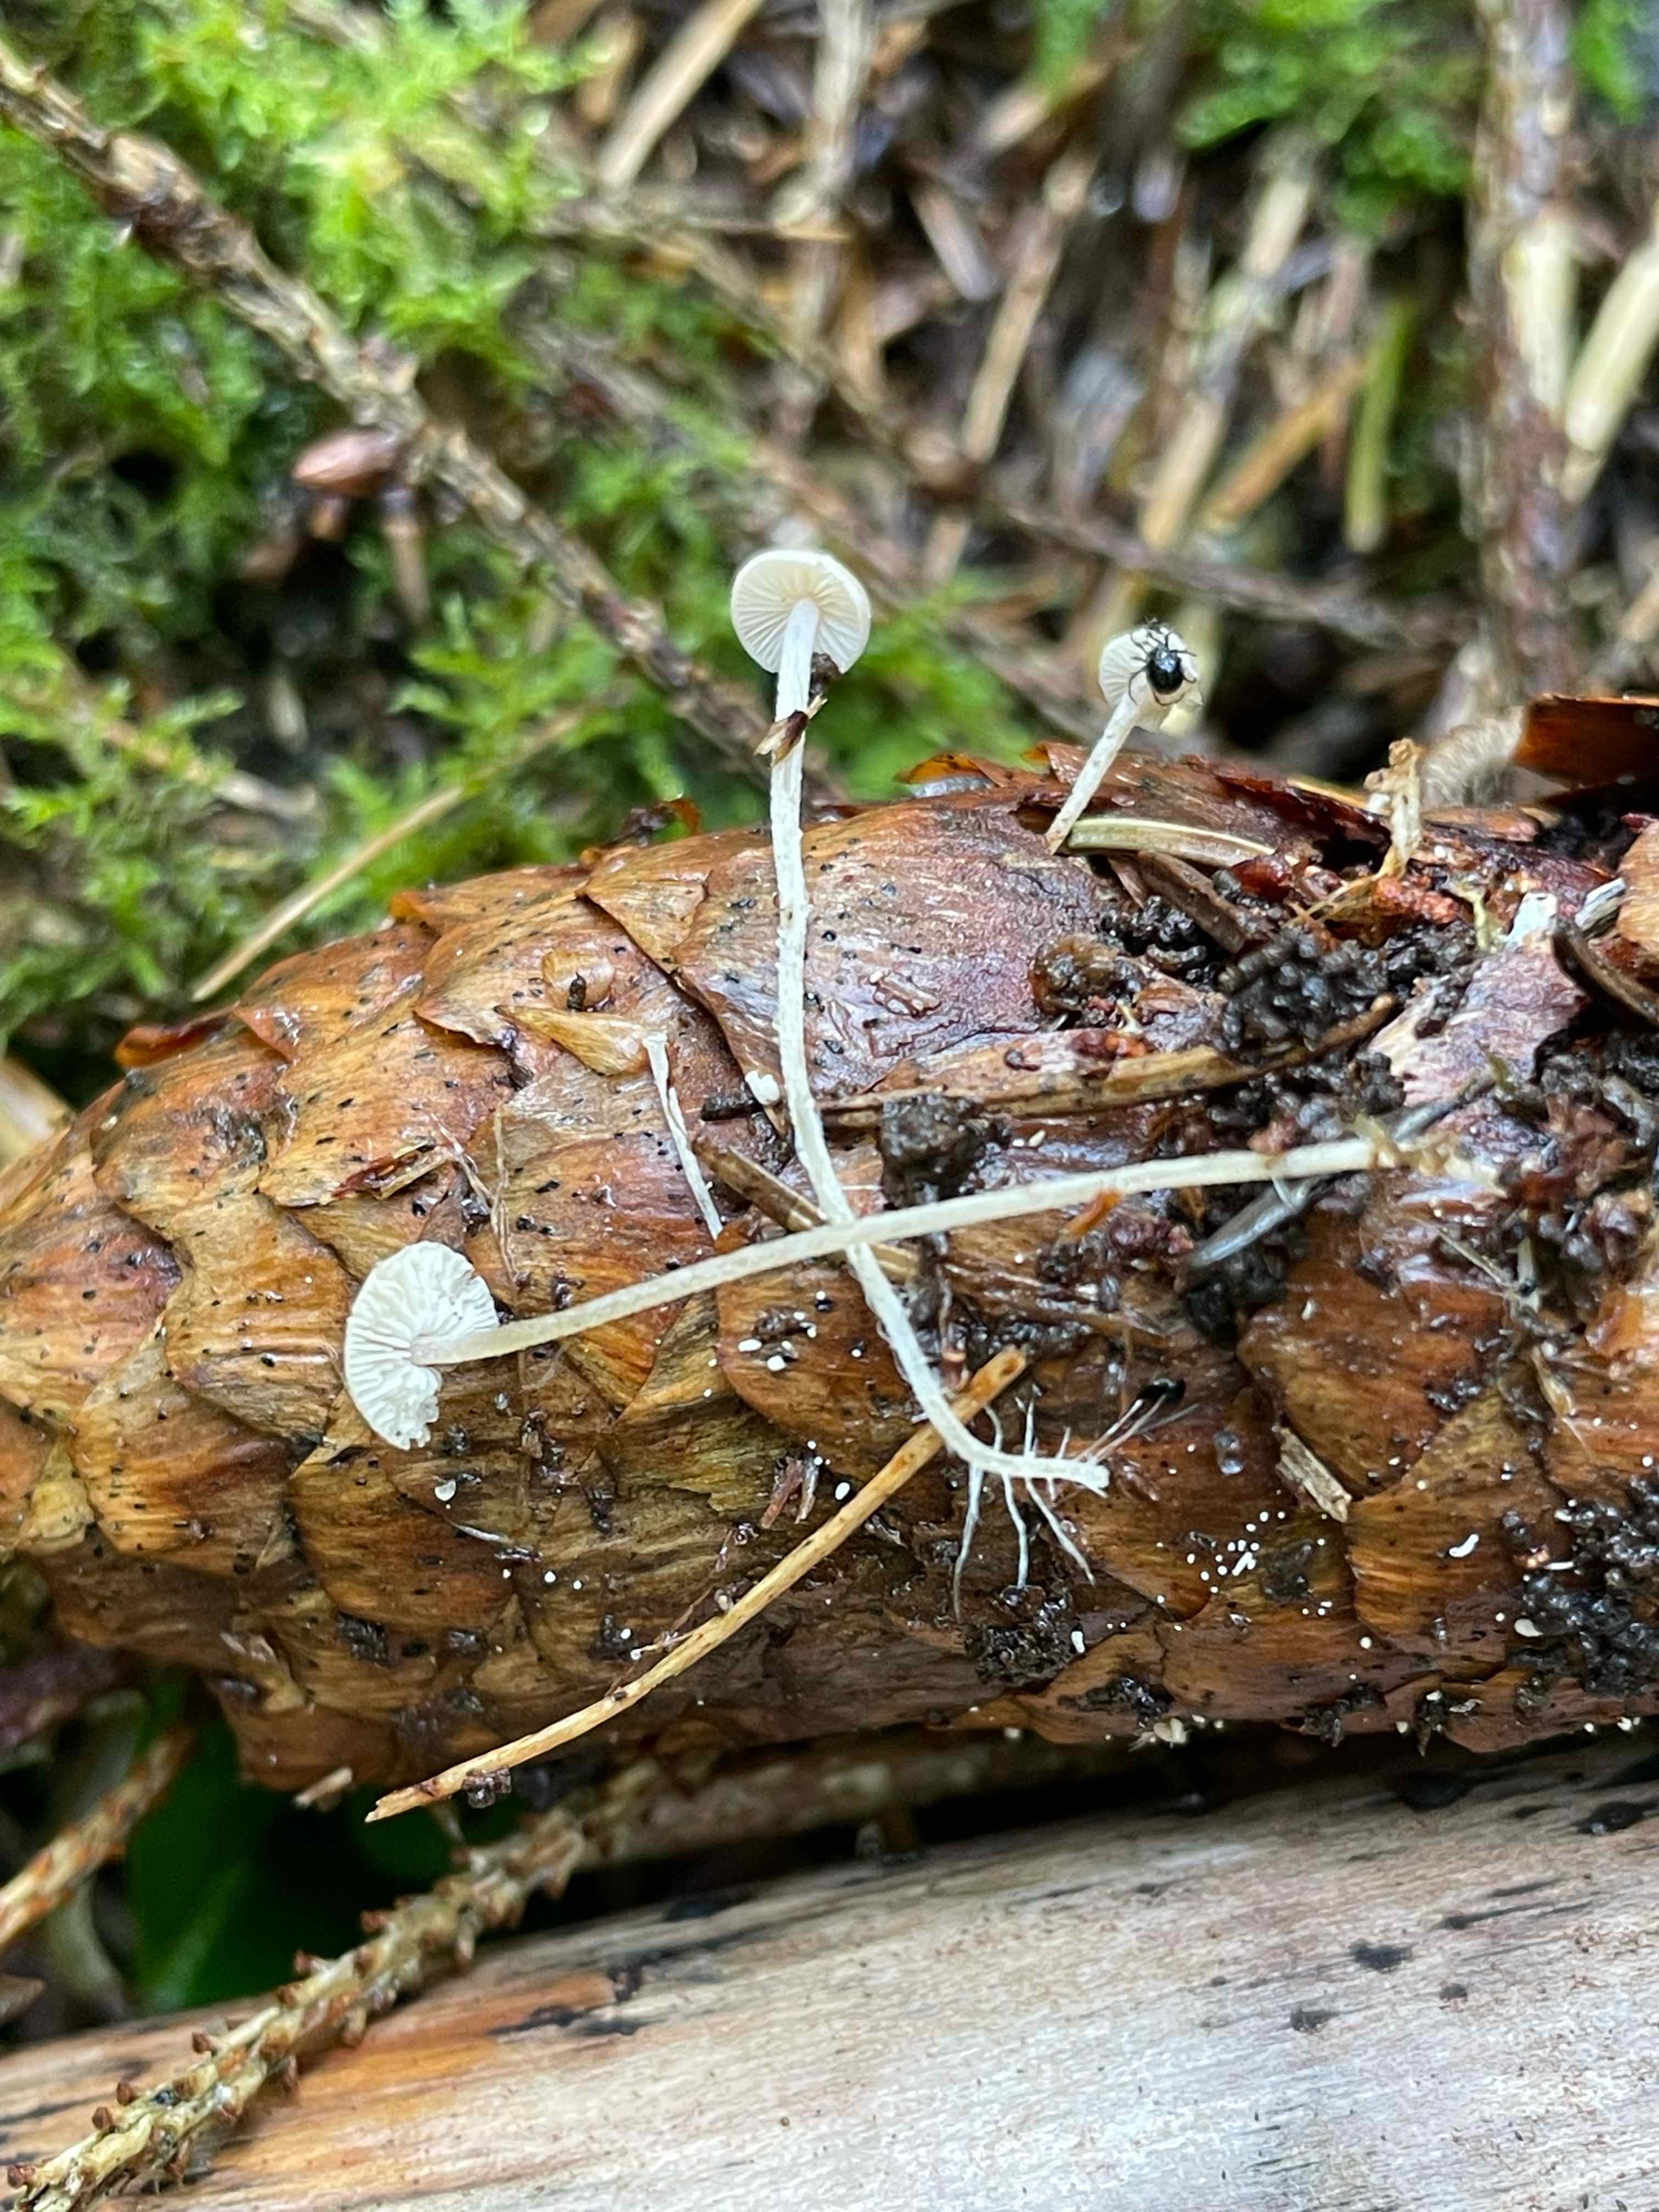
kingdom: Fungi
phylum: Basidiomycota
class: Agaricomycetes
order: Agaricales
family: Mycenaceae
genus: Mycena
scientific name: Mycena
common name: huesvamp
